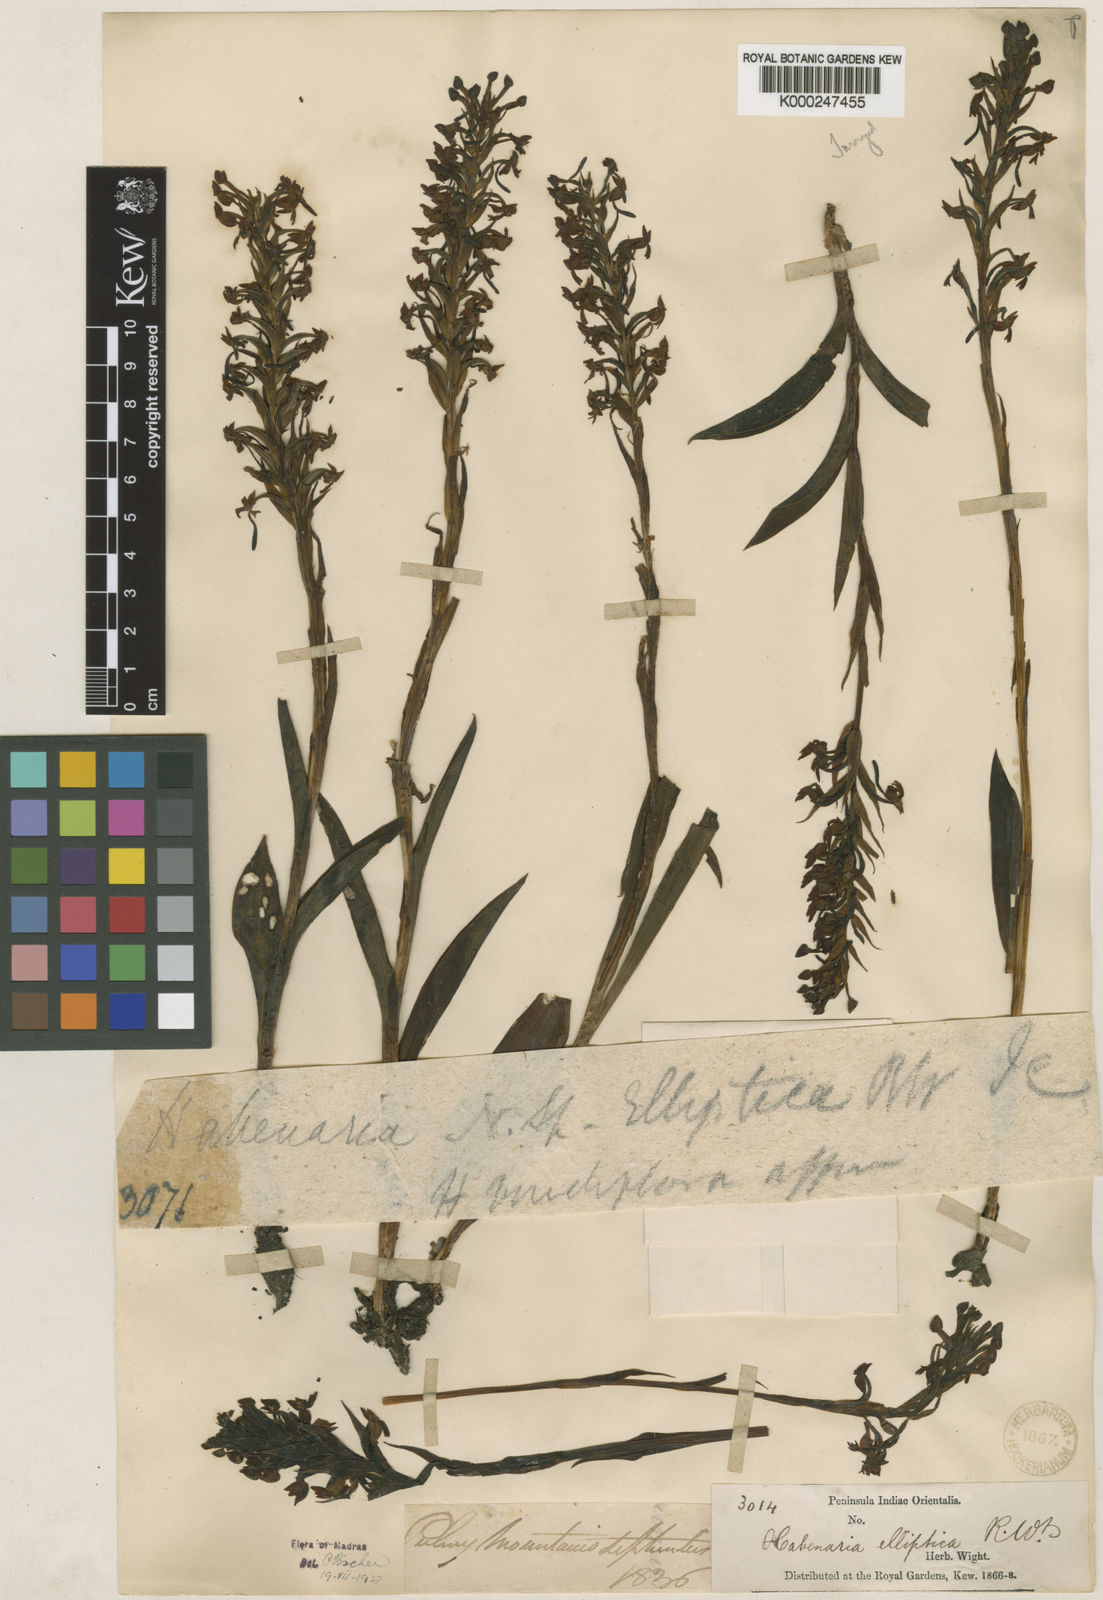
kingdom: Plantae
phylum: Tracheophyta
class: Liliopsida
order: Asparagales
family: Orchidaceae
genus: Habenaria
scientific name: Habenaria elliptica
